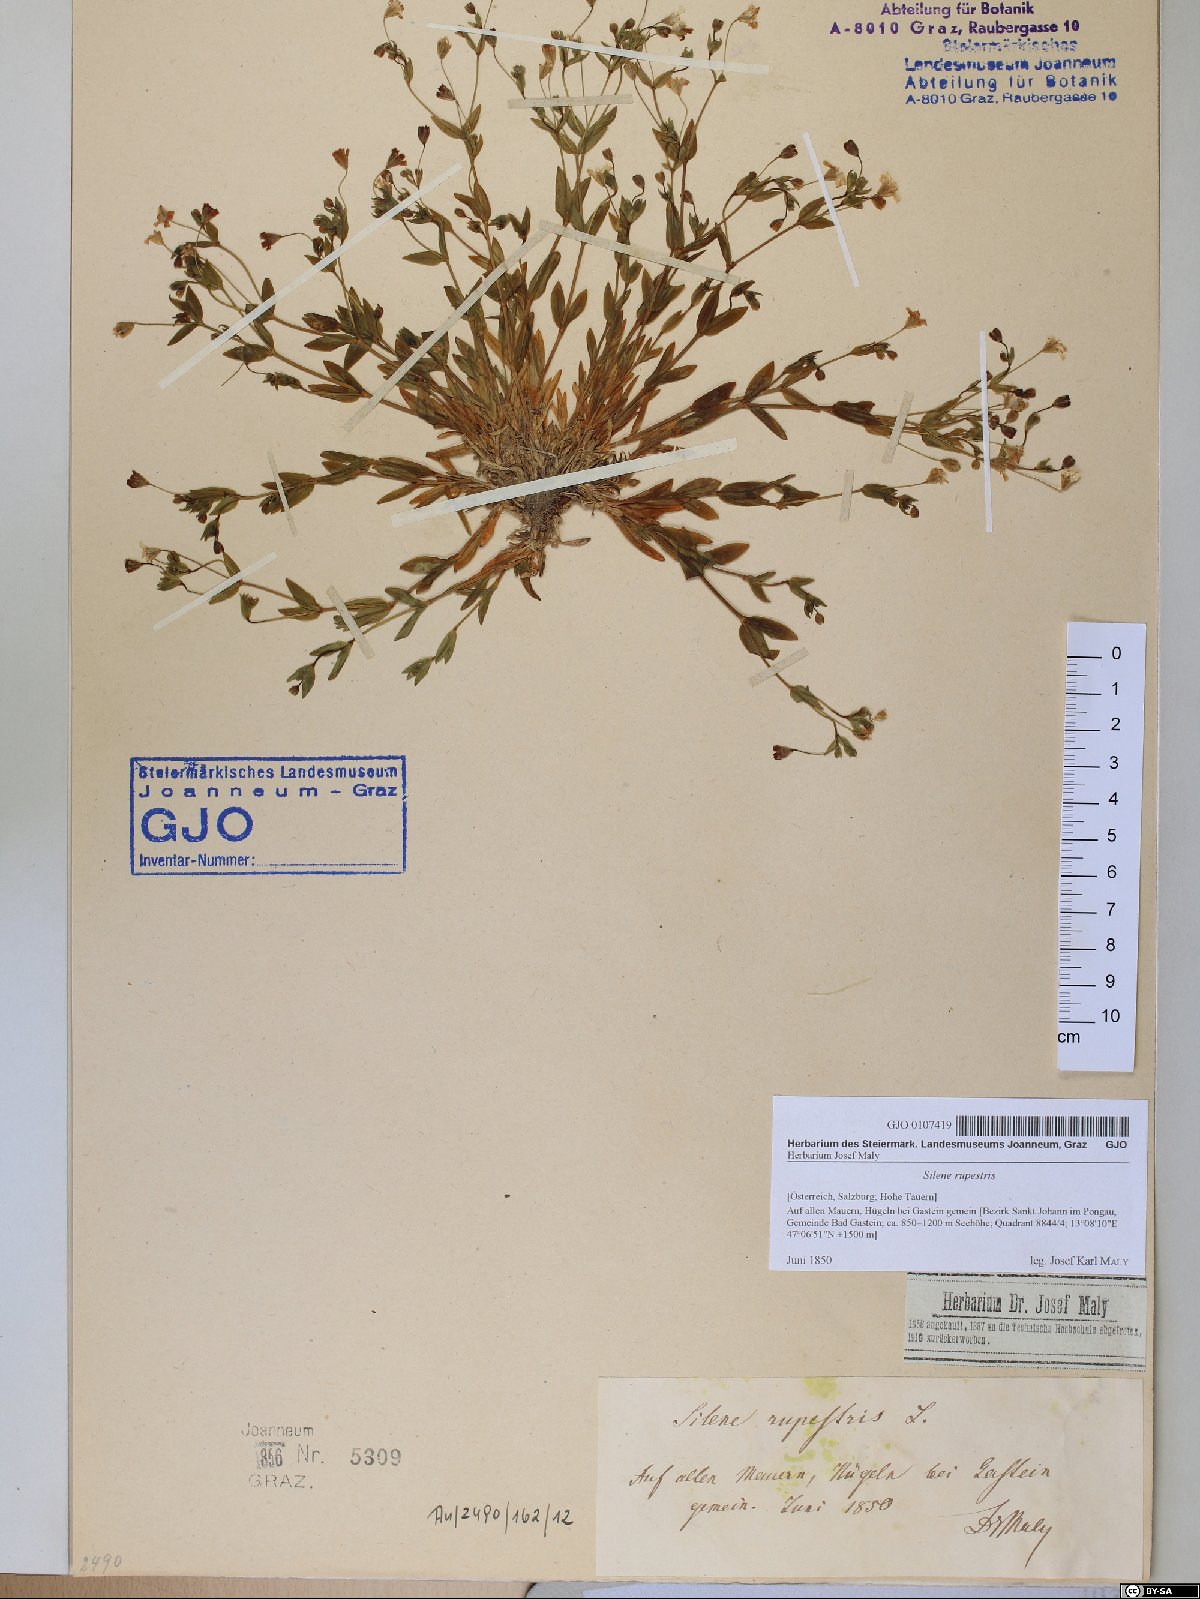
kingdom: Plantae
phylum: Tracheophyta
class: Magnoliopsida
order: Caryophyllales
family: Caryophyllaceae
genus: Atocion
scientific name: Atocion rupestre
